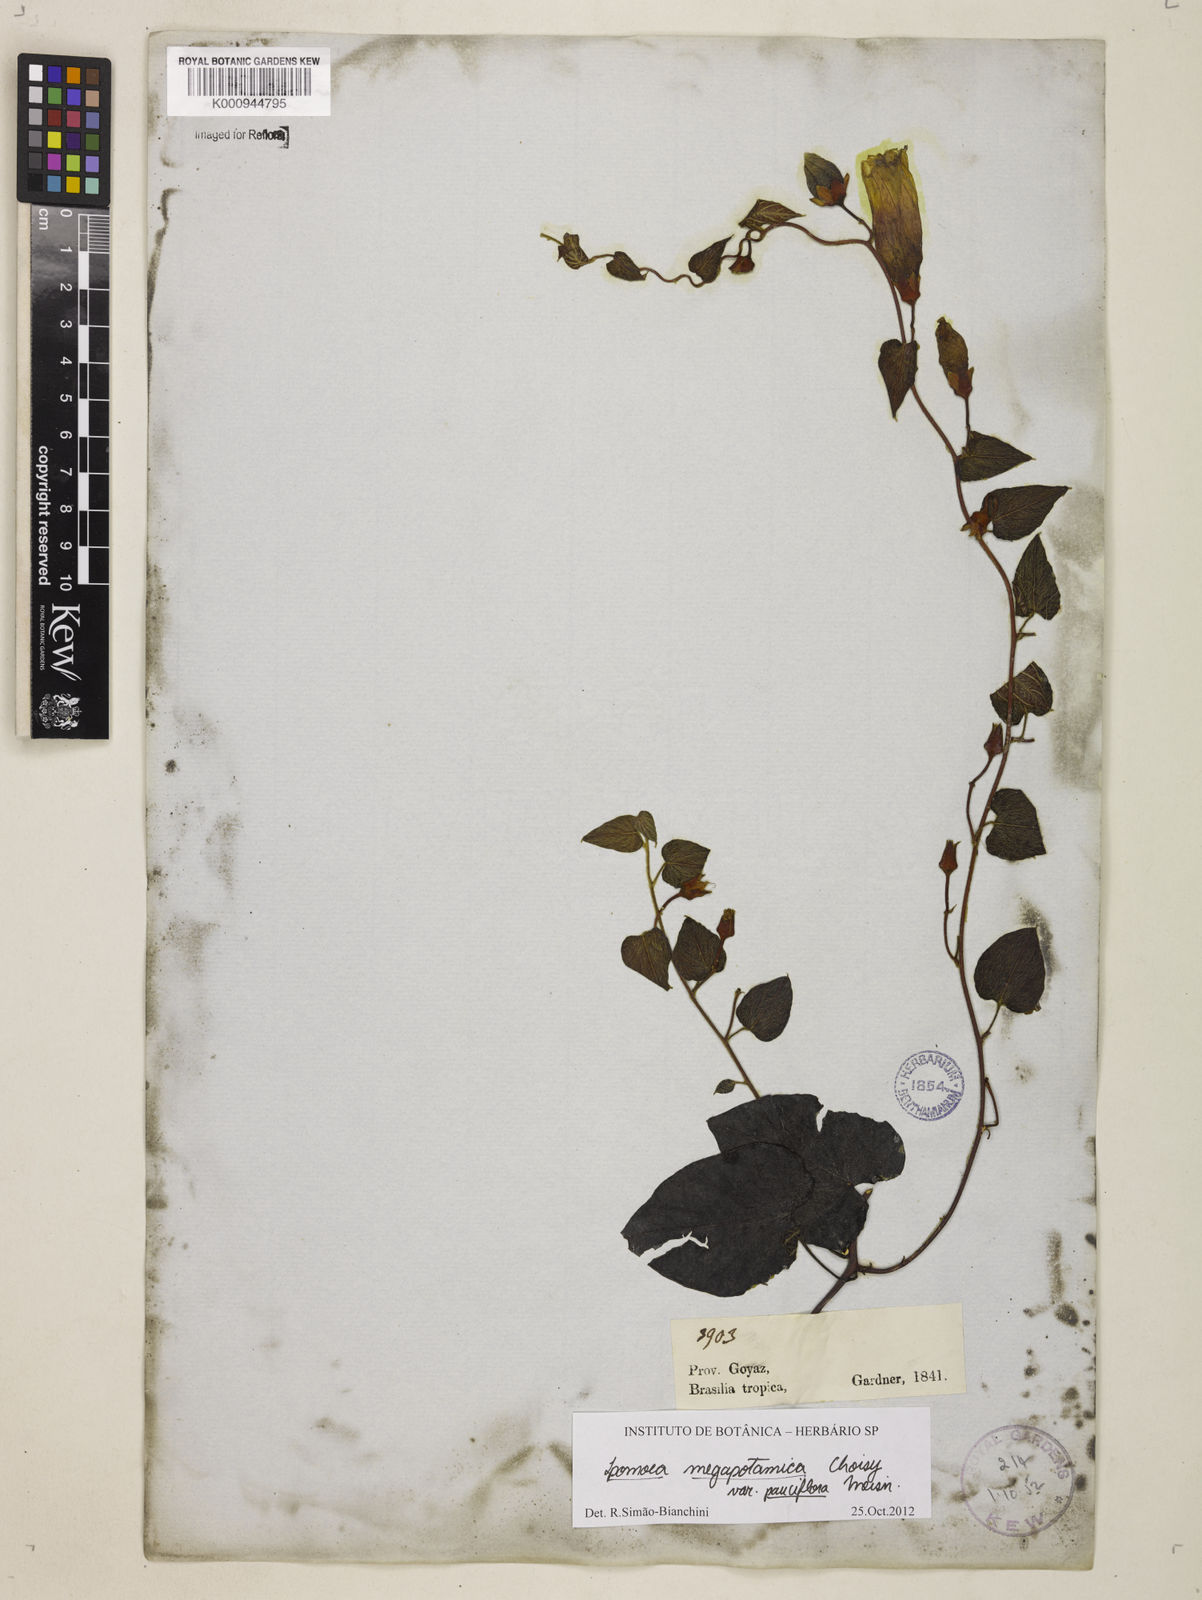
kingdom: Plantae
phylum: Tracheophyta
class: Magnoliopsida
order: Solanales
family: Convolvulaceae
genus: Ipomoea
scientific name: Ipomoea megapotamica
